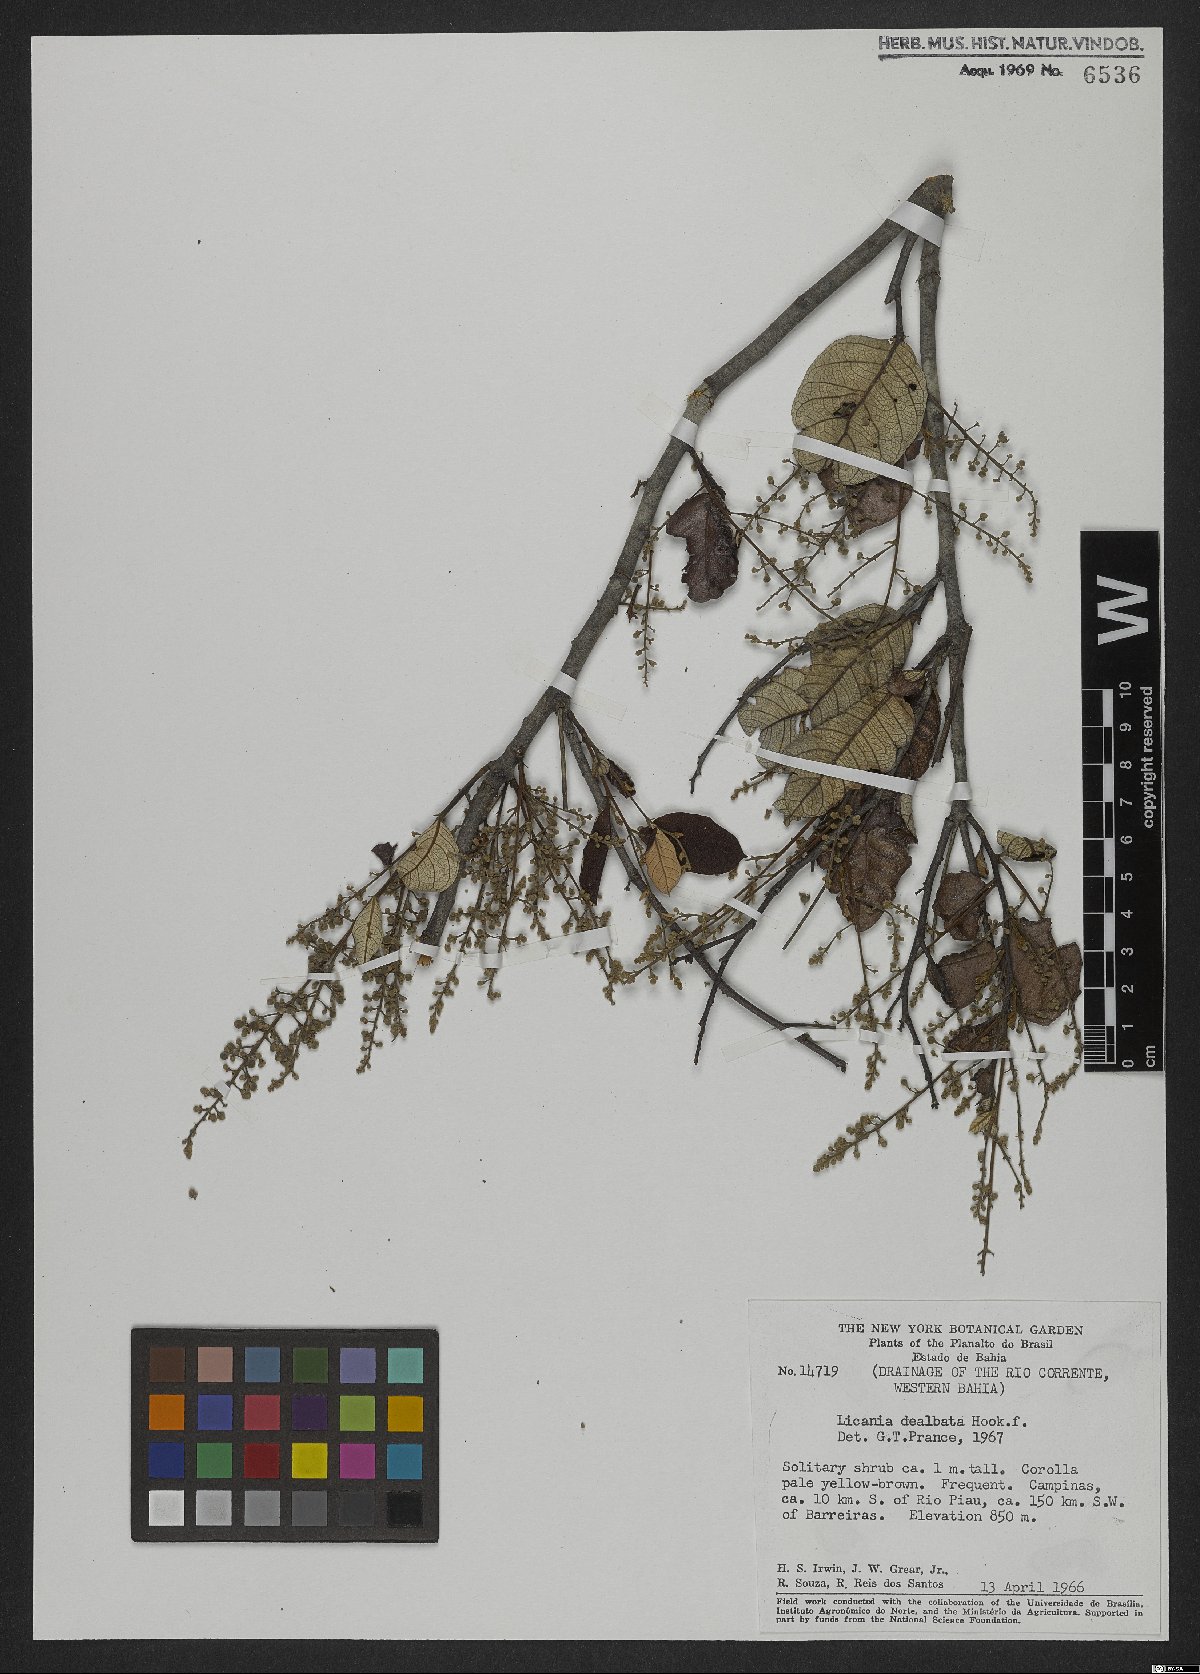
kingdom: Plantae
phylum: Tracheophyta
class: Magnoliopsida
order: Malpighiales
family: Chrysobalanaceae
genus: Licania
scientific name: Licania dealbata
